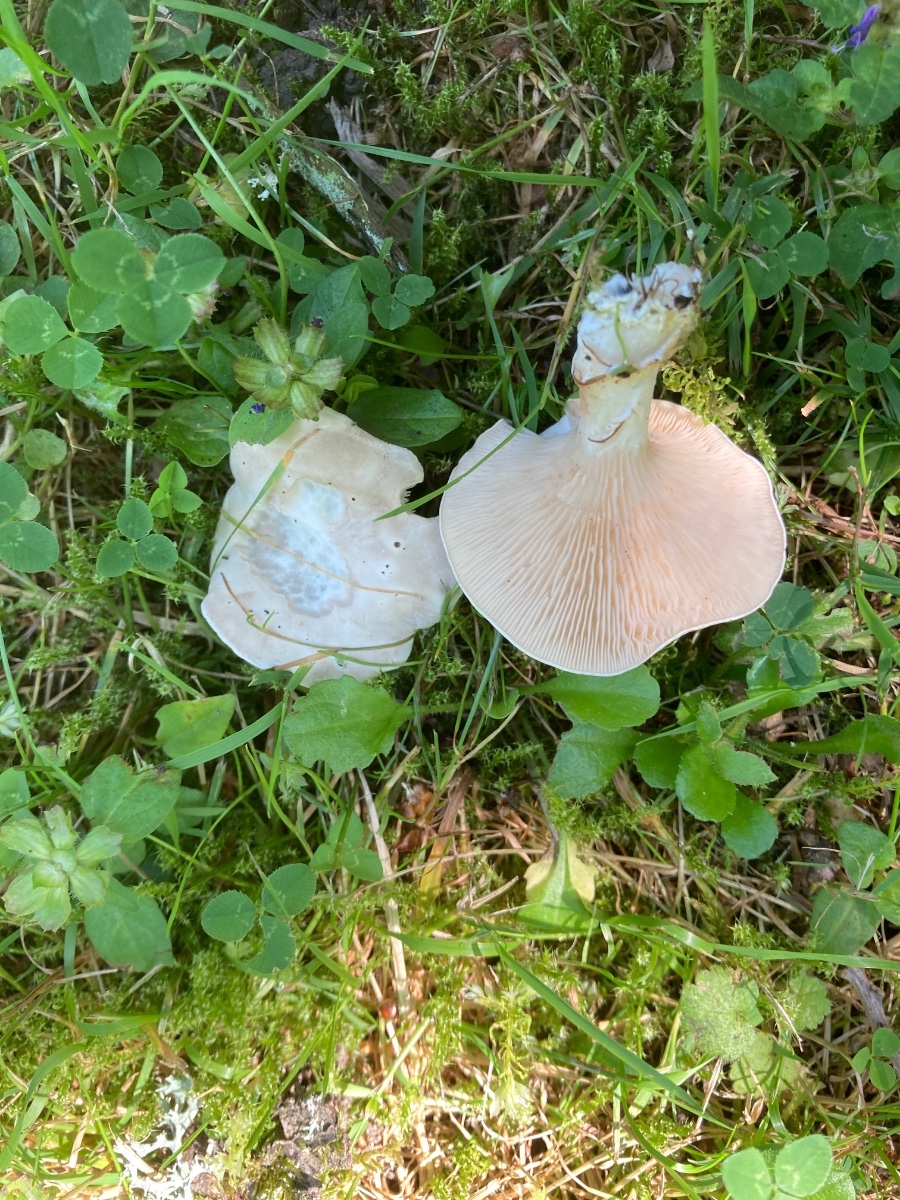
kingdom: Fungi
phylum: Basidiomycota
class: Agaricomycetes
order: Agaricales
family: Entolomataceae
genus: Clitopilus
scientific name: Clitopilus prunulus
